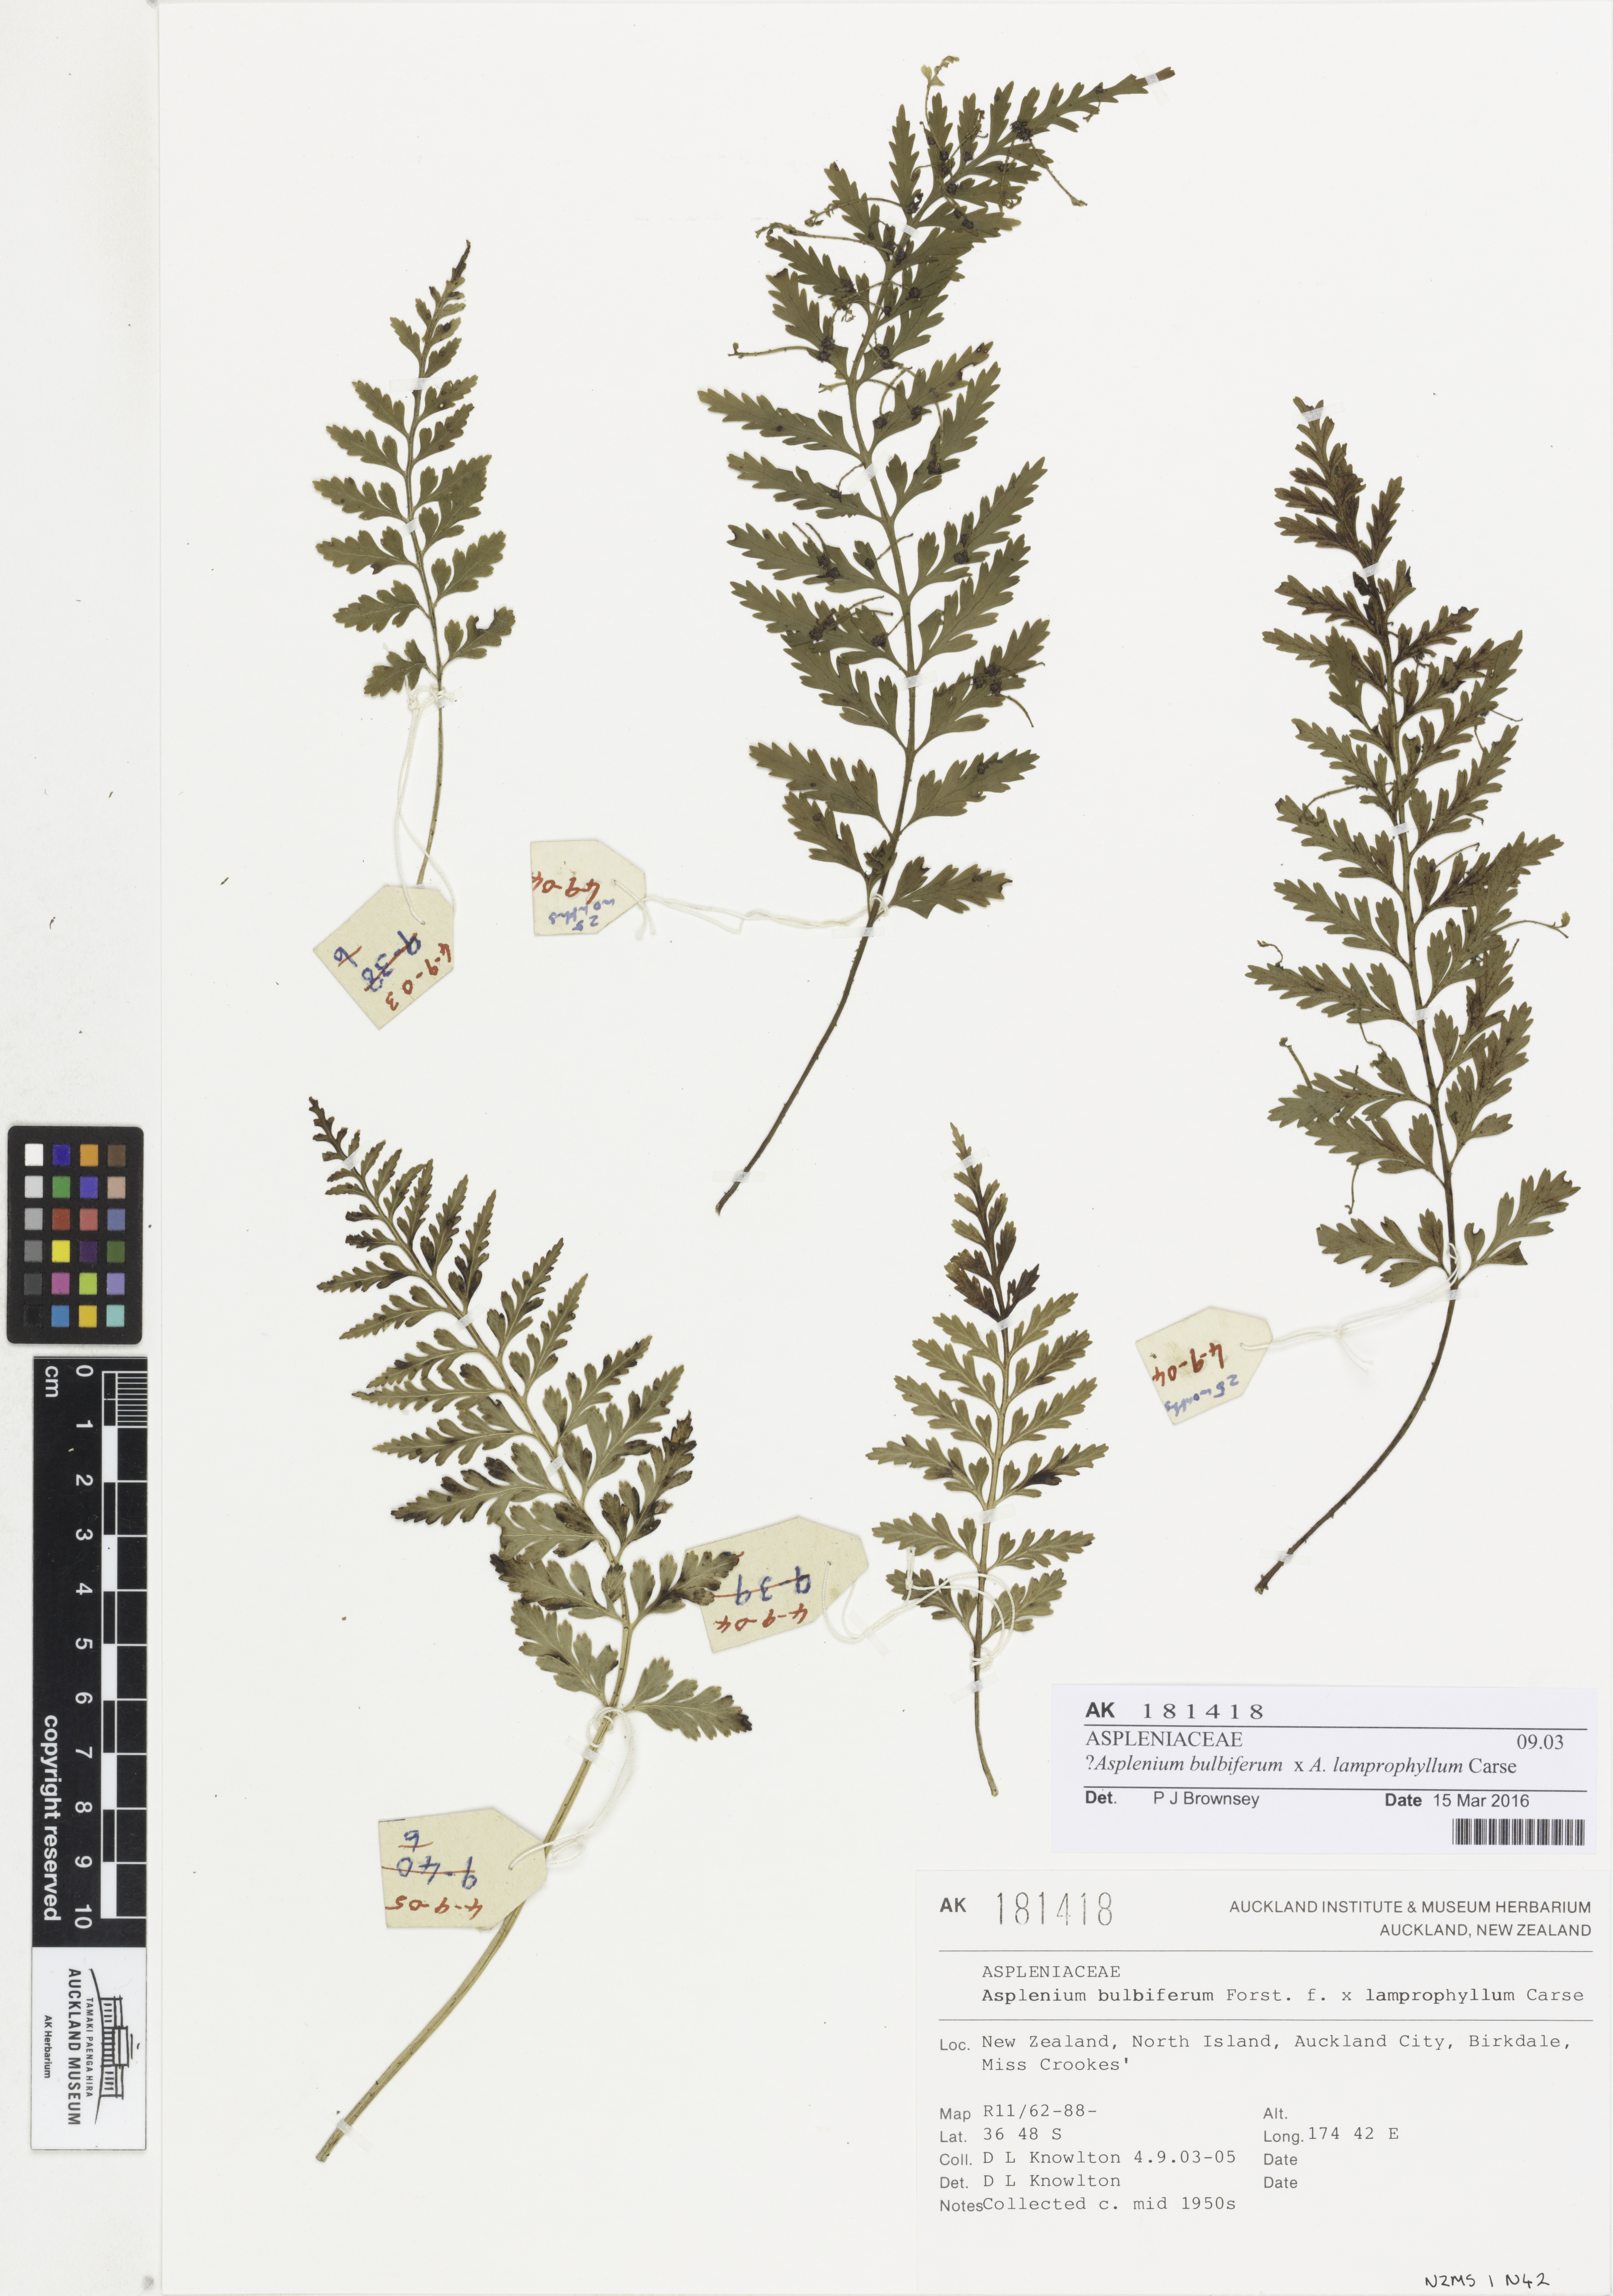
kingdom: Plantae
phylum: Tracheophyta
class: Polypodiopsida
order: Polypodiales
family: Aspleniaceae
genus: Asplenium
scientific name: Asplenium
